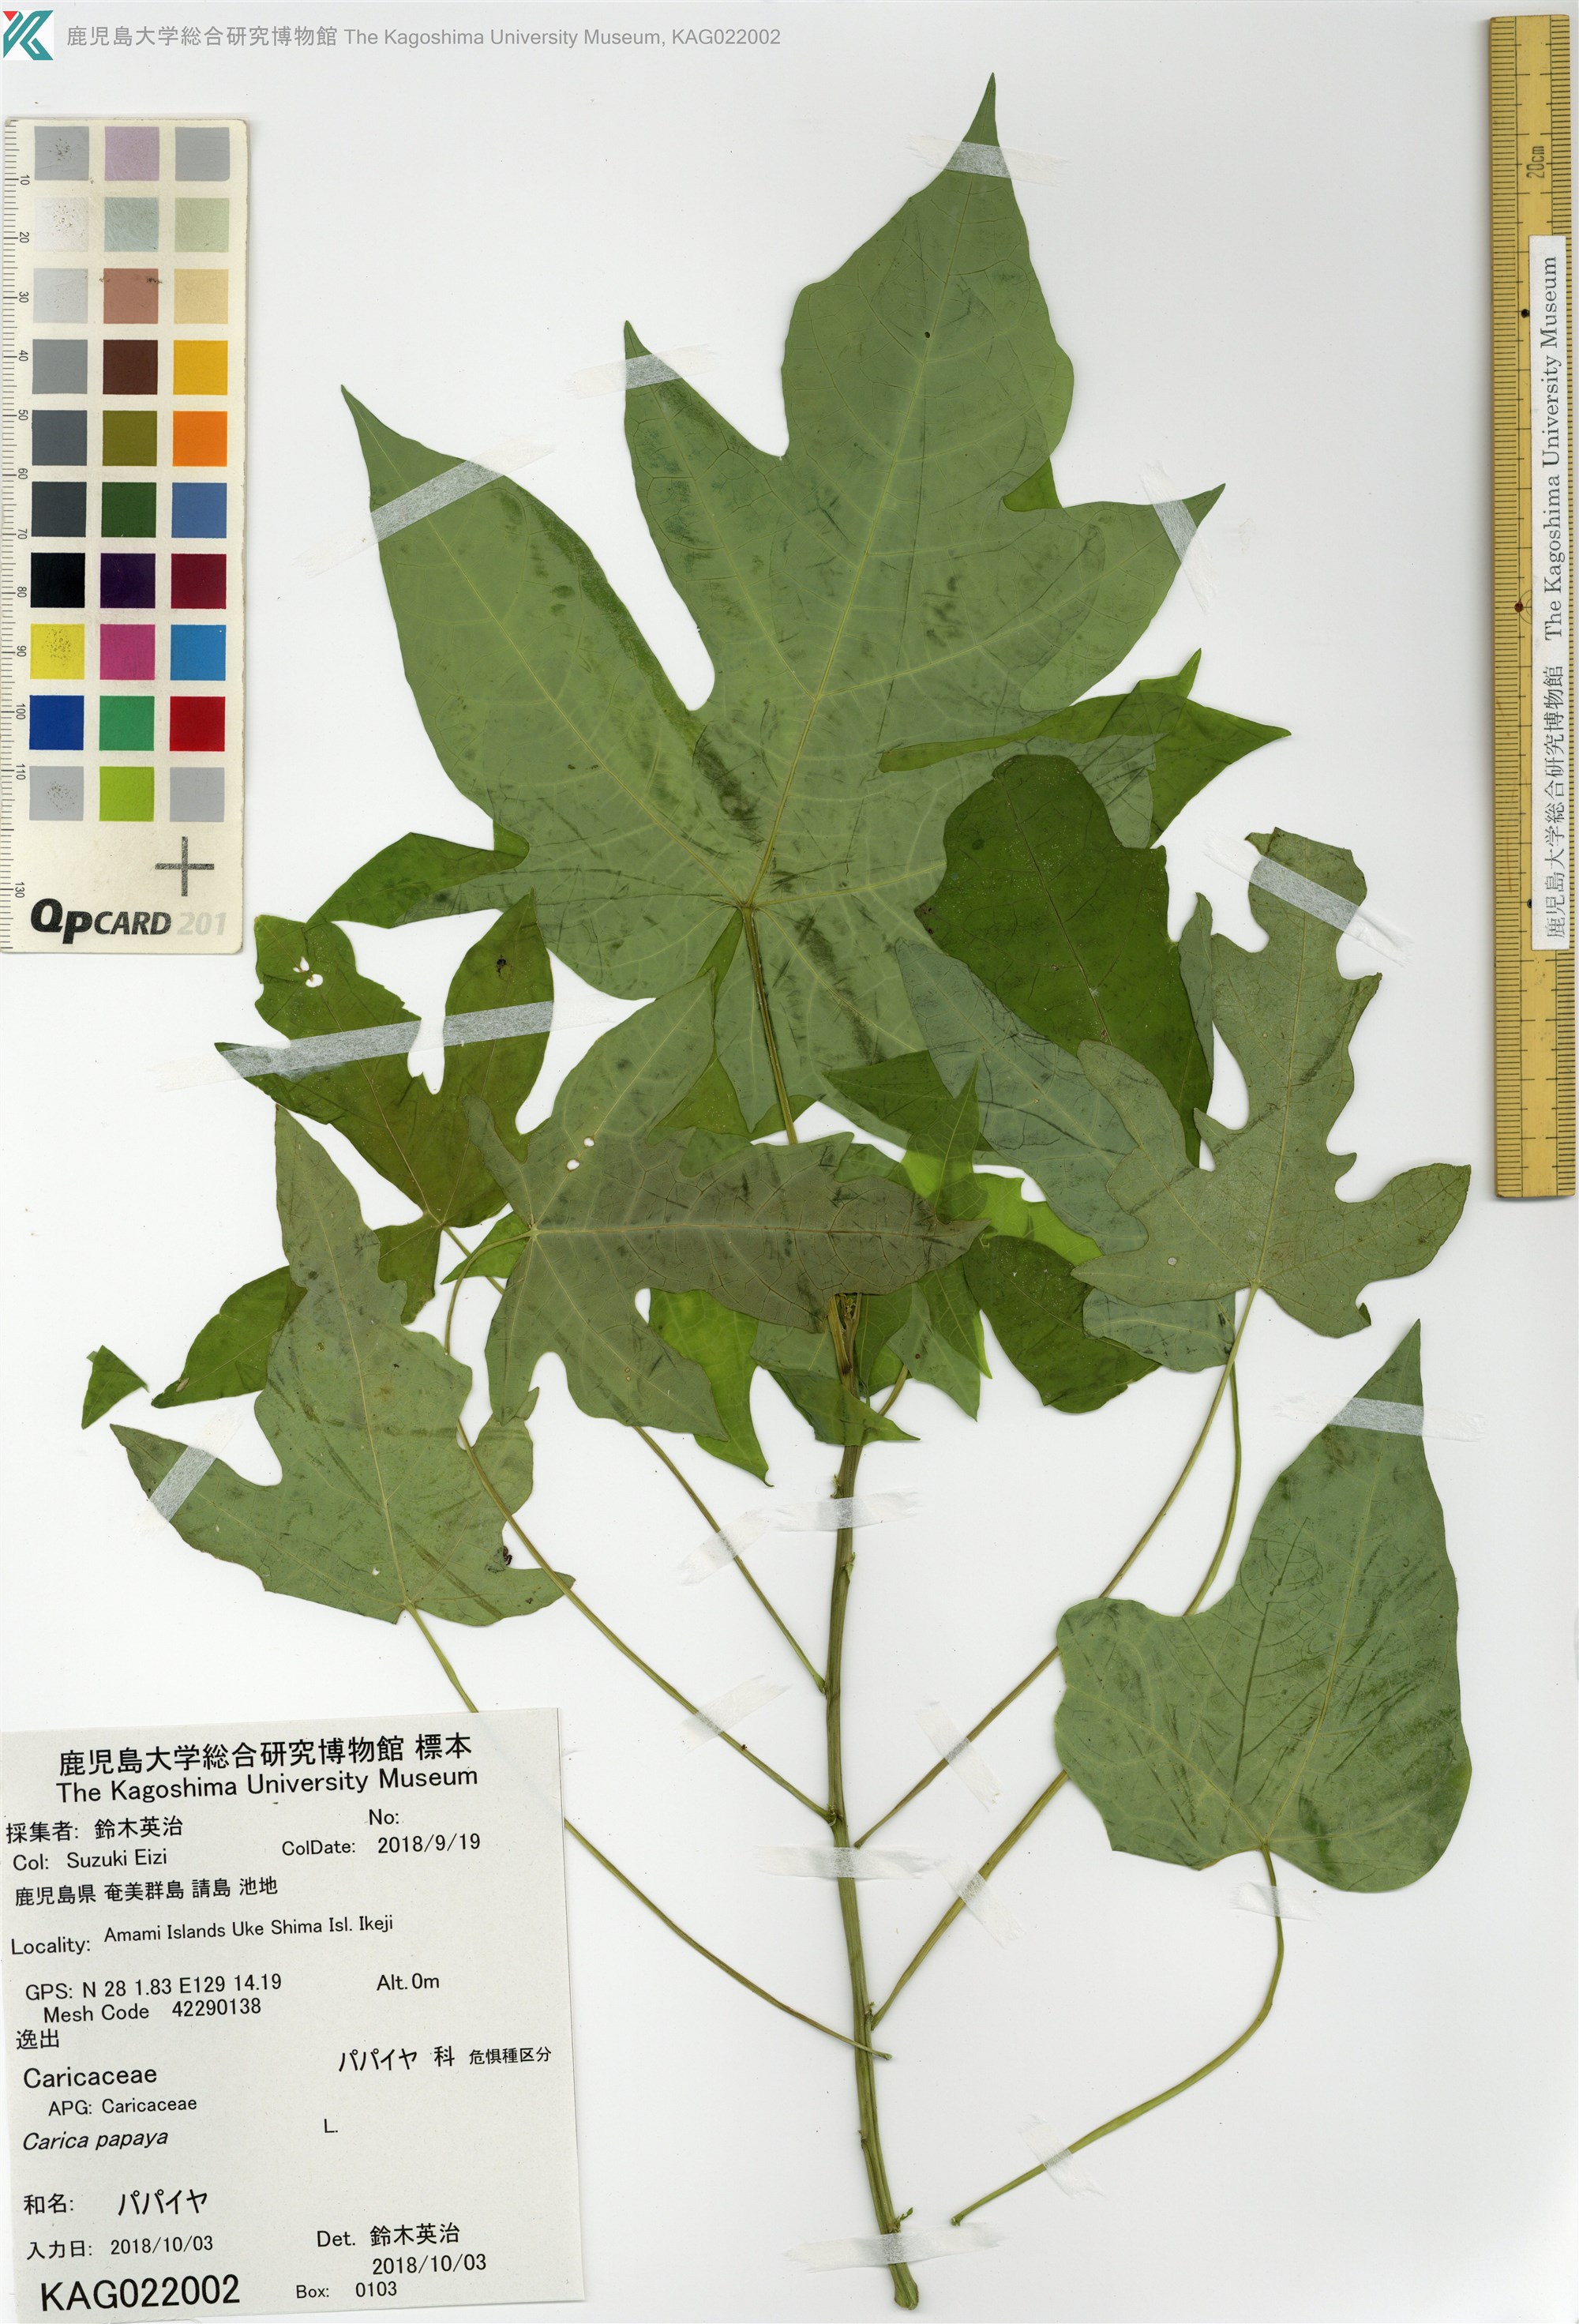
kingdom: Plantae
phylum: Tracheophyta
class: Magnoliopsida
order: Brassicales
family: Caricaceae
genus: Carica
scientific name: Carica papaya
